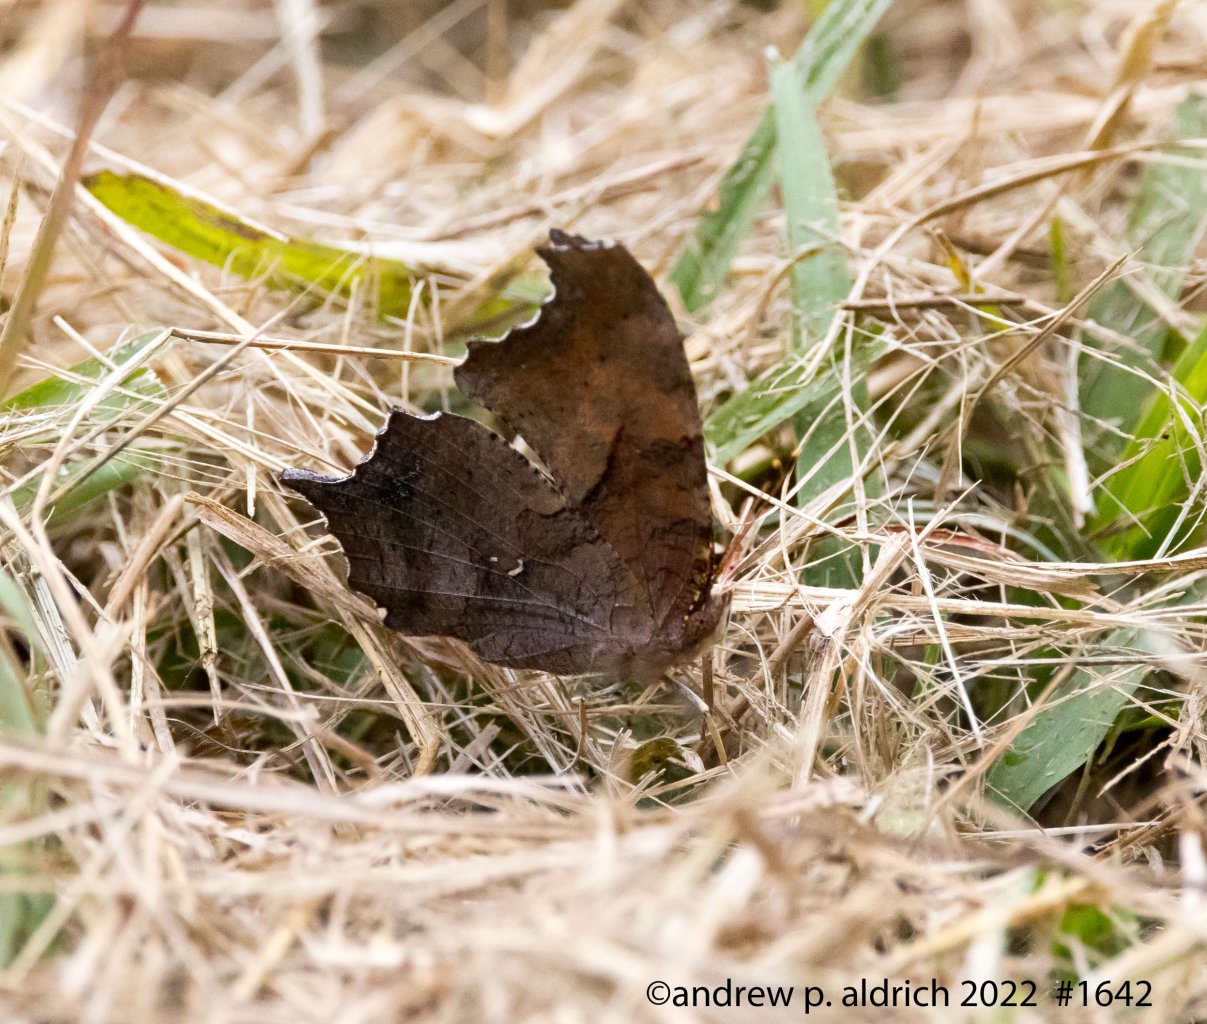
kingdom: Animalia
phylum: Arthropoda
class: Insecta
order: Lepidoptera
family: Nymphalidae
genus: Polygonia
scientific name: Polygonia interrogationis
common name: Question Mark
